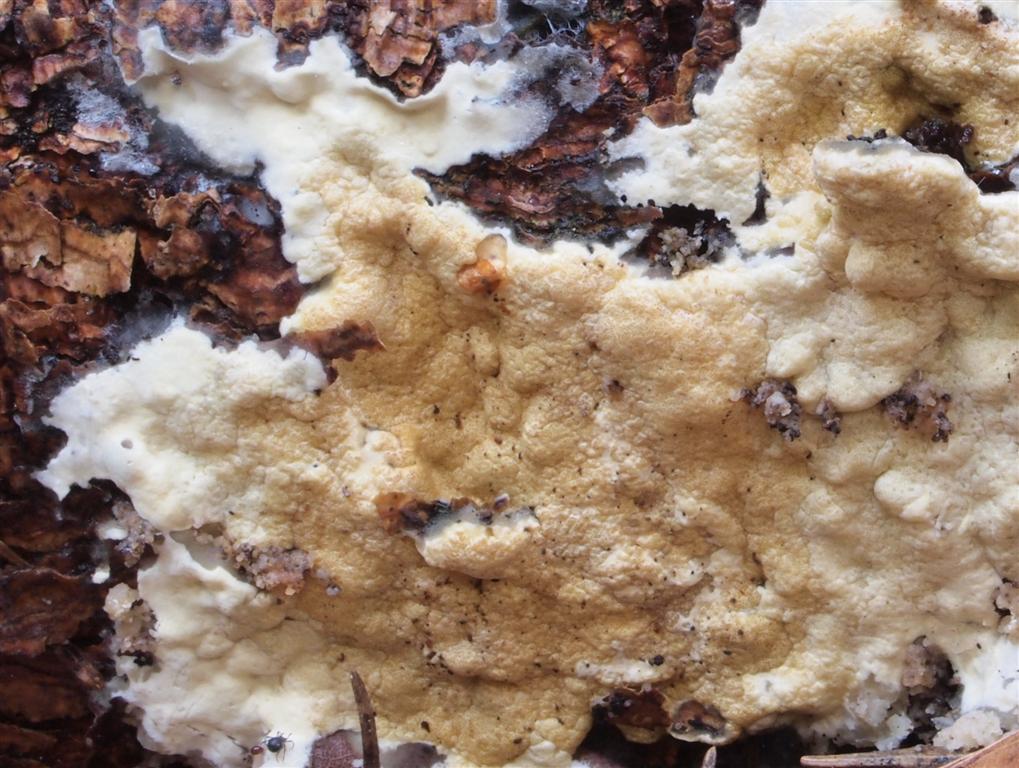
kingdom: Fungi
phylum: Ascomycota
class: Sordariomycetes
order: Hypocreales
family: Hypocreaceae
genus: Trichoderma
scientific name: Trichoderma citrinum
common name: udbredt kødkerne
